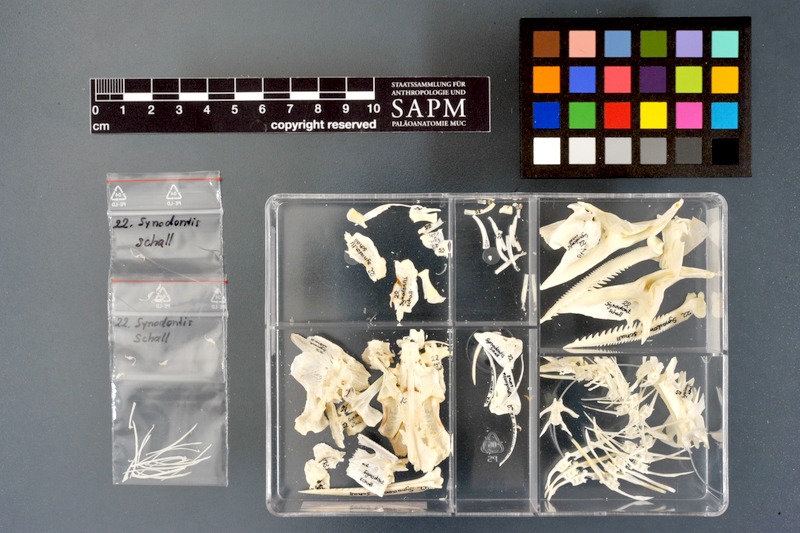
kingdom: Animalia
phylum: Chordata
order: Siluriformes
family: Mochokidae
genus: Synodontis
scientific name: Synodontis schall
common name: Wahrindi
